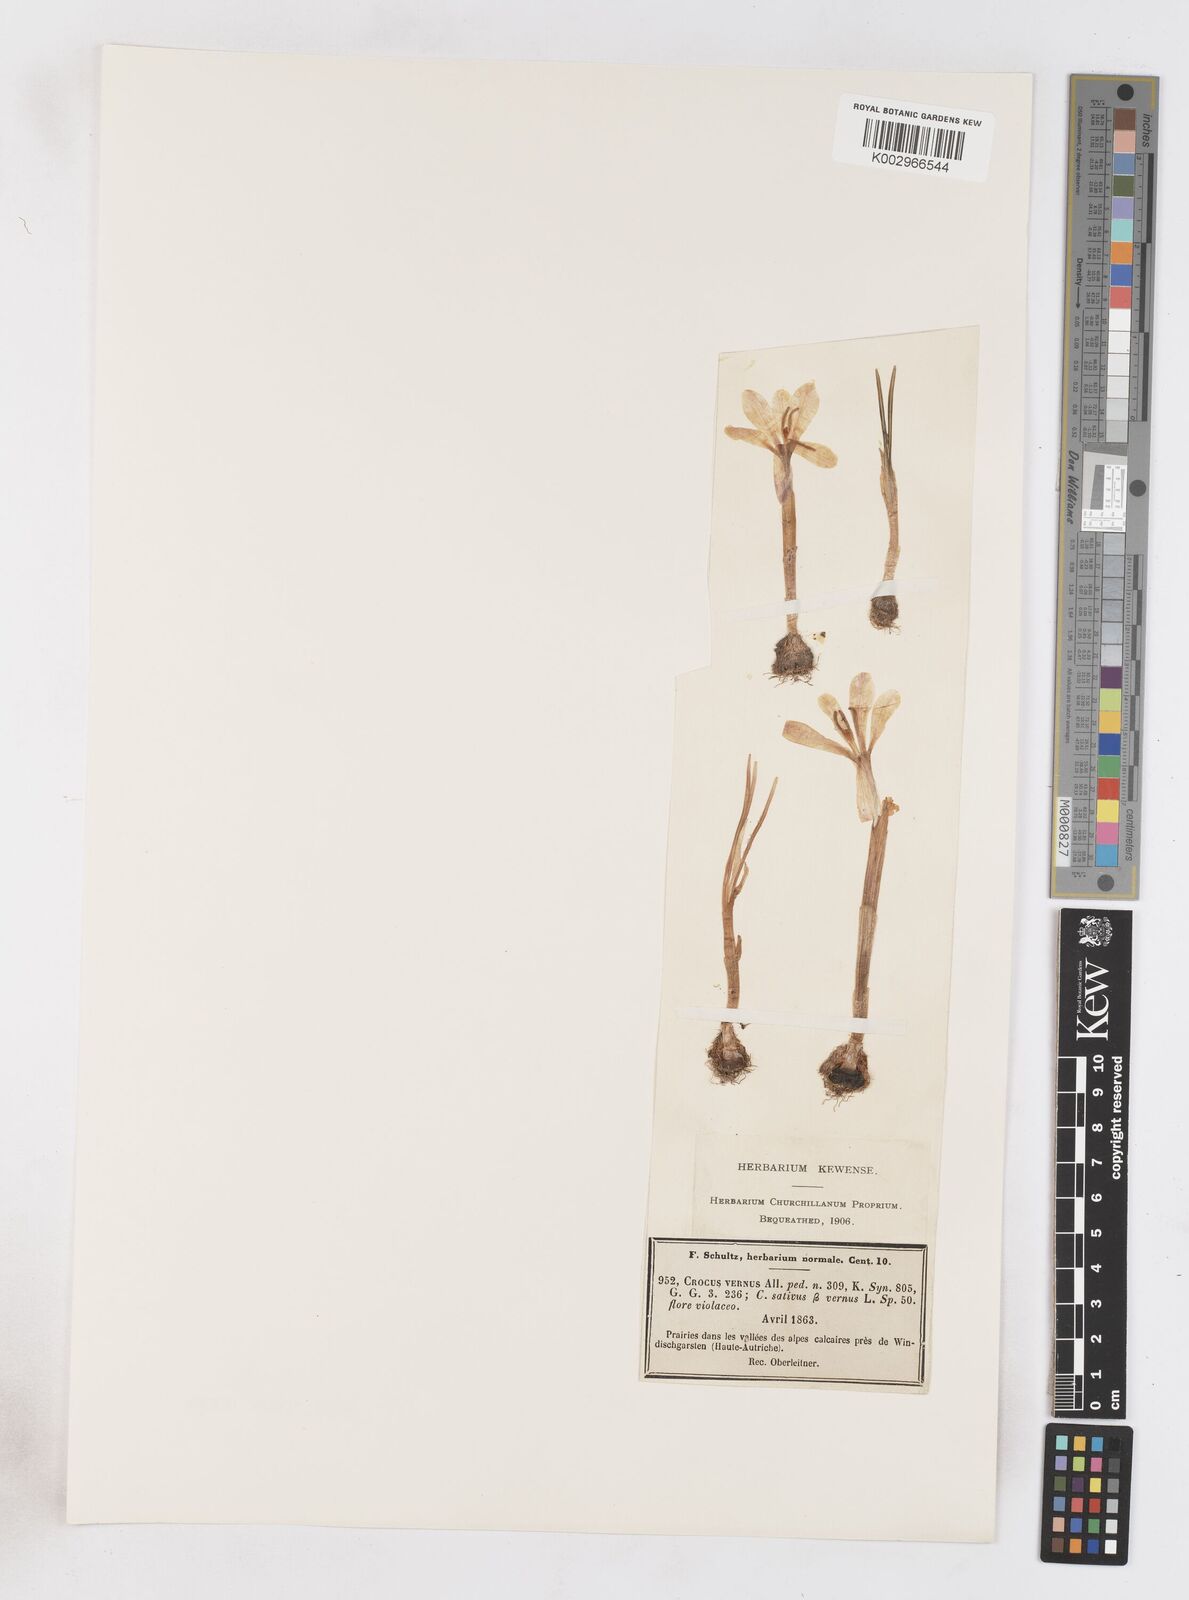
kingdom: Plantae
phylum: Tracheophyta
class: Liliopsida
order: Asparagales
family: Iridaceae
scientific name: Iridaceae
